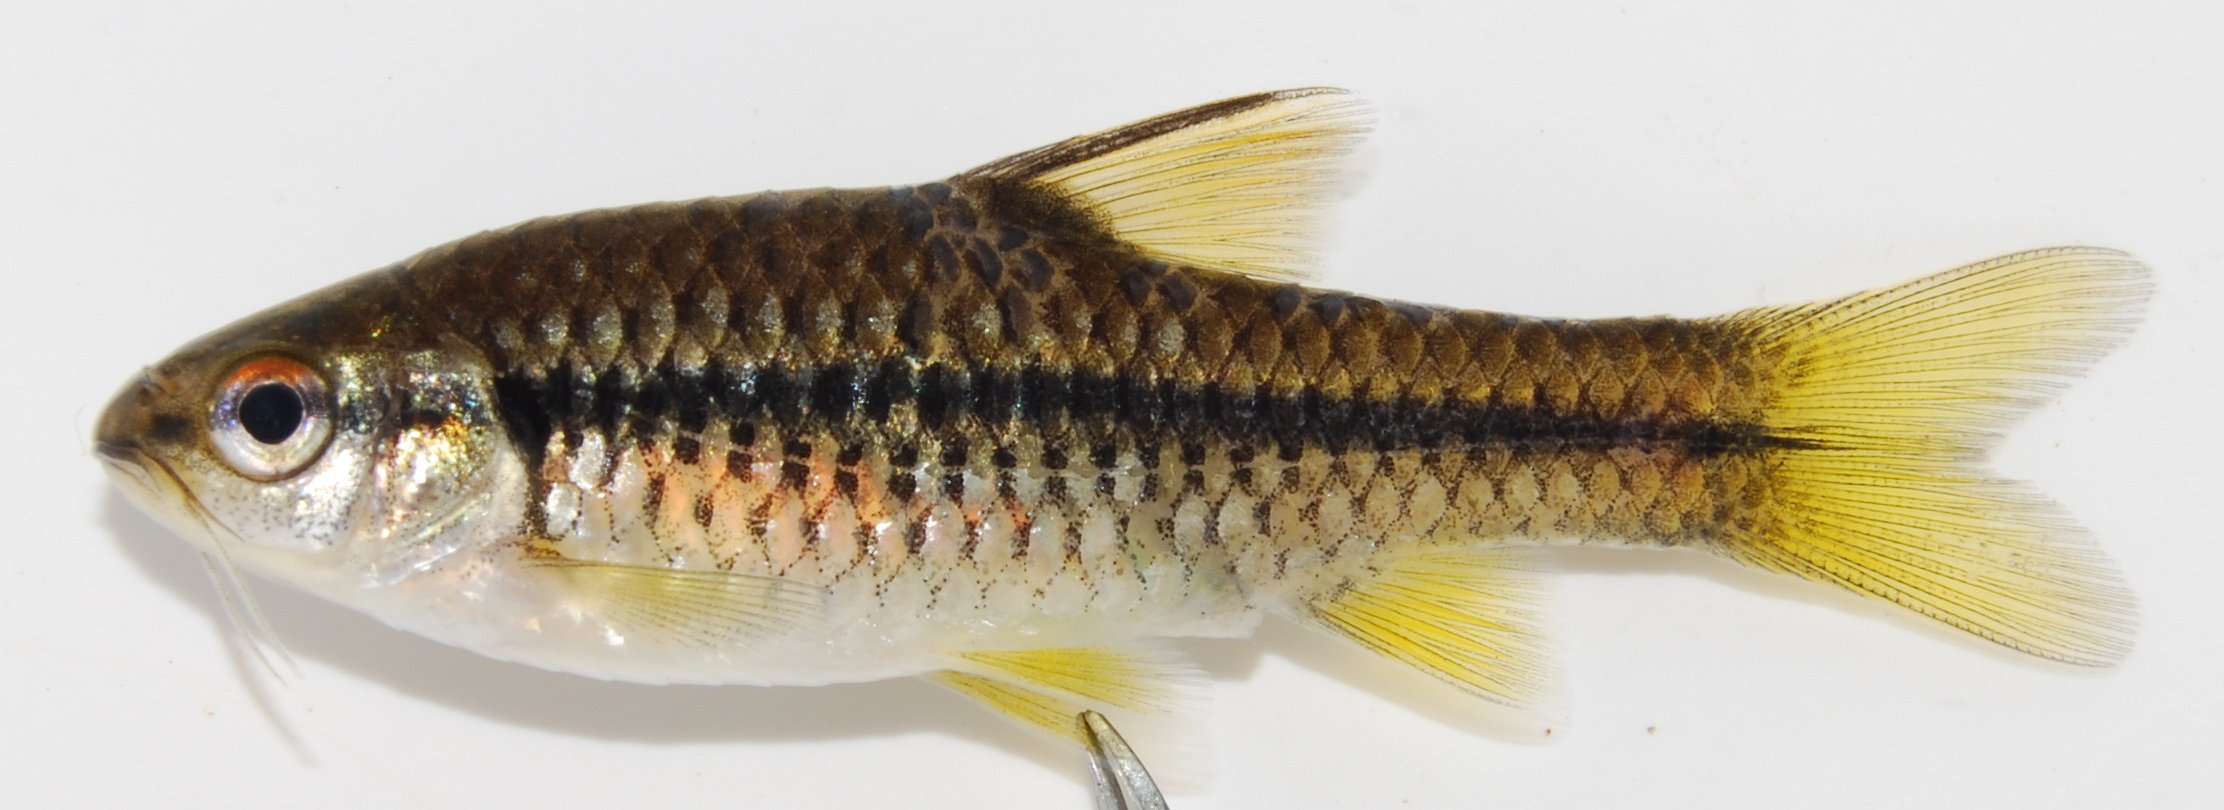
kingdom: Animalia
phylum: Chordata
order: Cypriniformes
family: Cyprinidae
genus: Barbus
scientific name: Barbus
